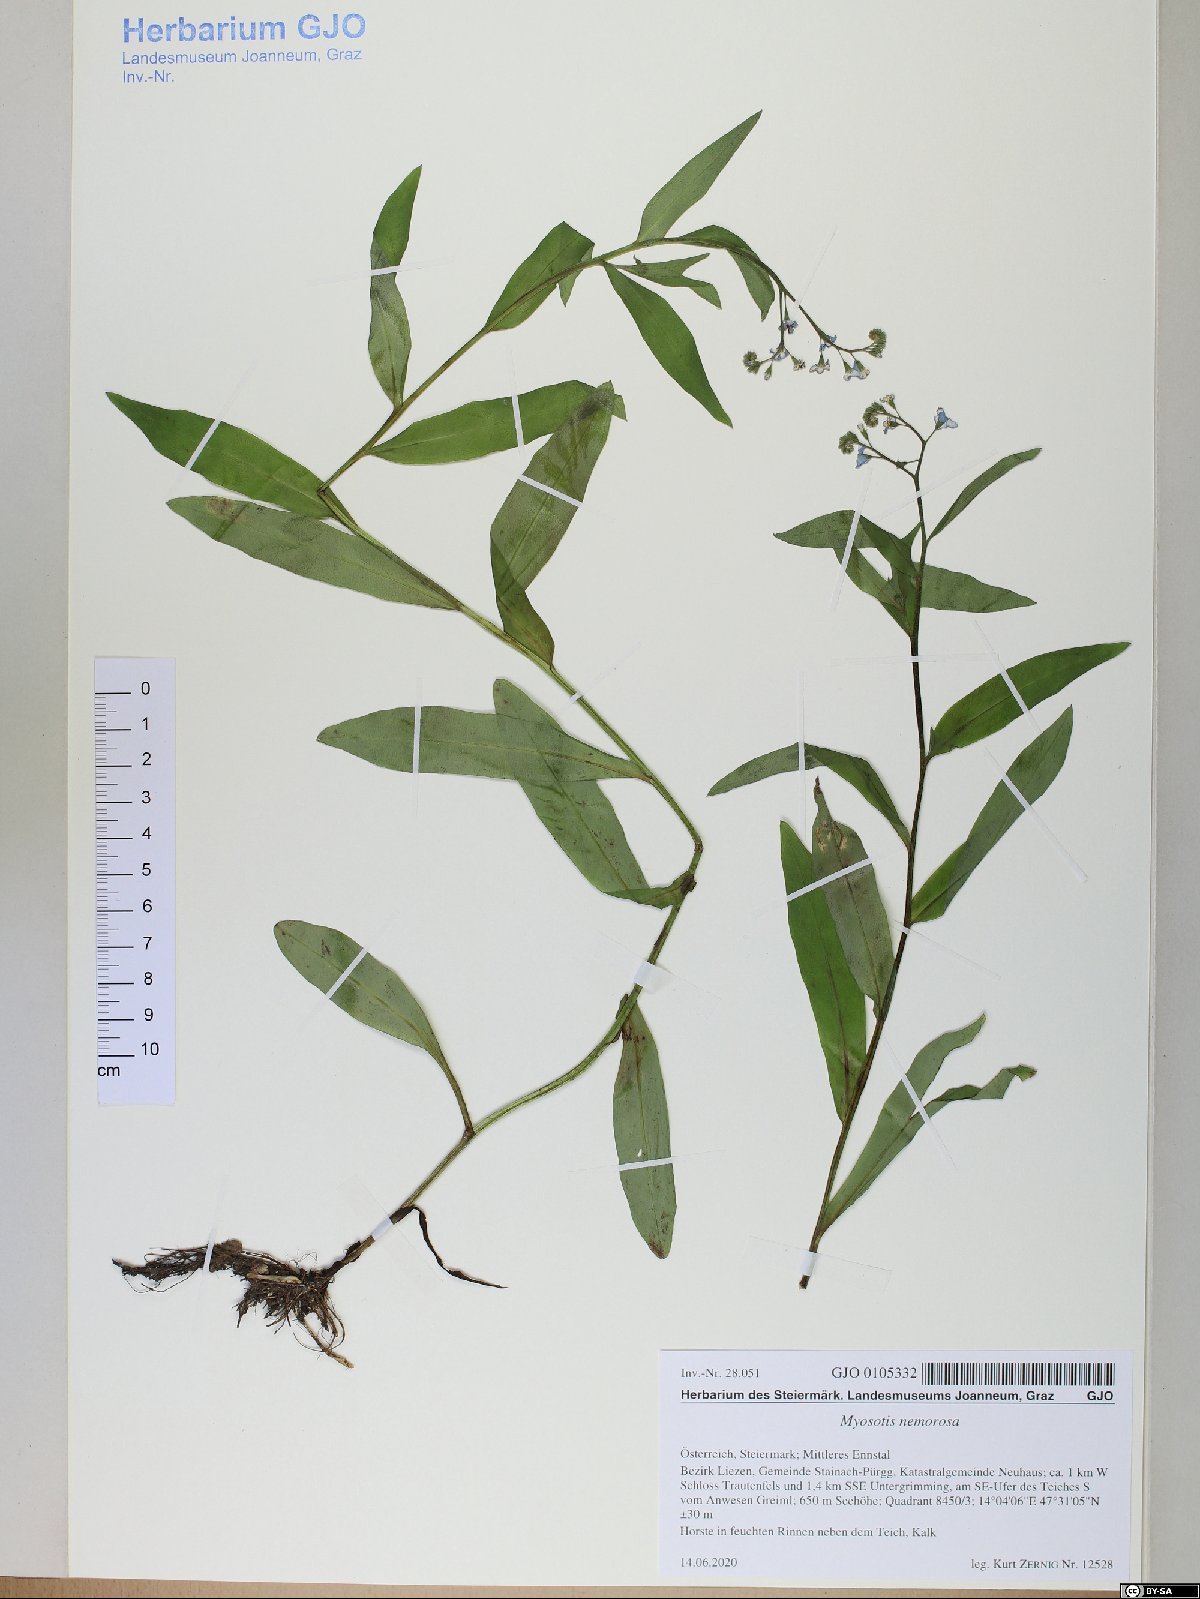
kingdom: Plantae
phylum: Tracheophyta
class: Magnoliopsida
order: Boraginales
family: Boraginaceae
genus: Myosotis
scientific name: Myosotis nemorosa
